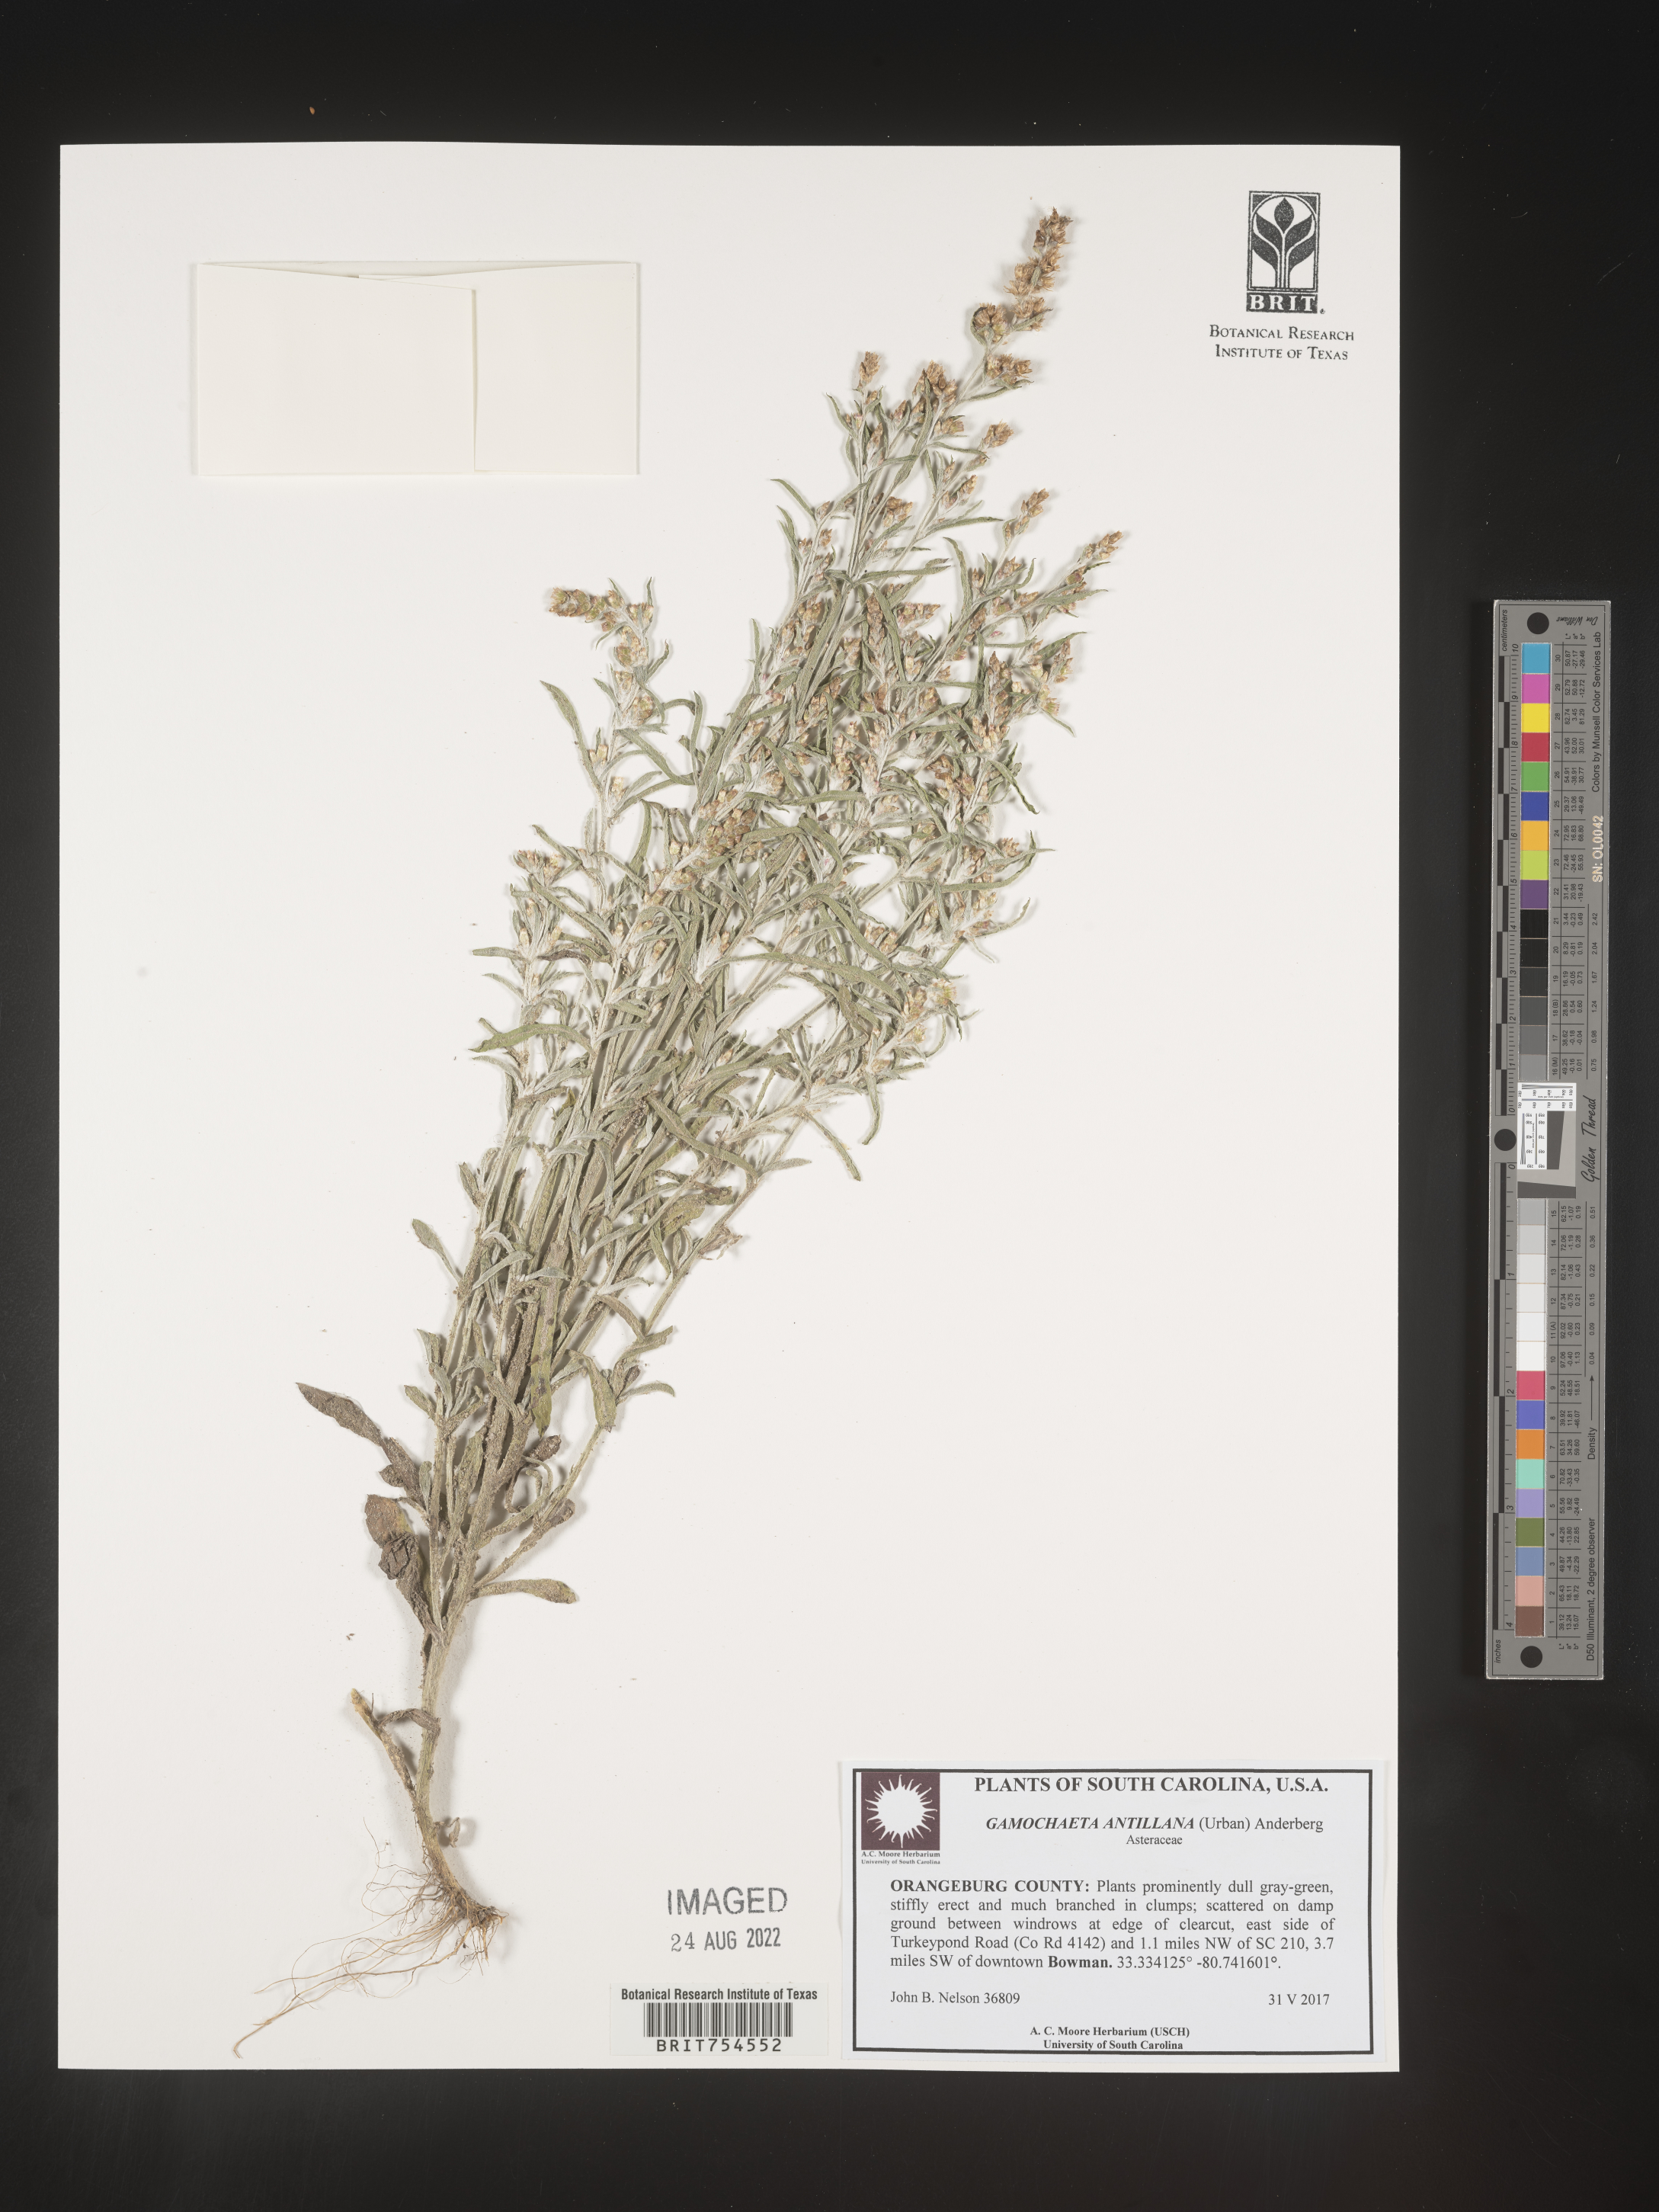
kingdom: Plantae
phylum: Tracheophyta
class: Magnoliopsida
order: Asterales
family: Asteraceae
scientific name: Asteraceae
